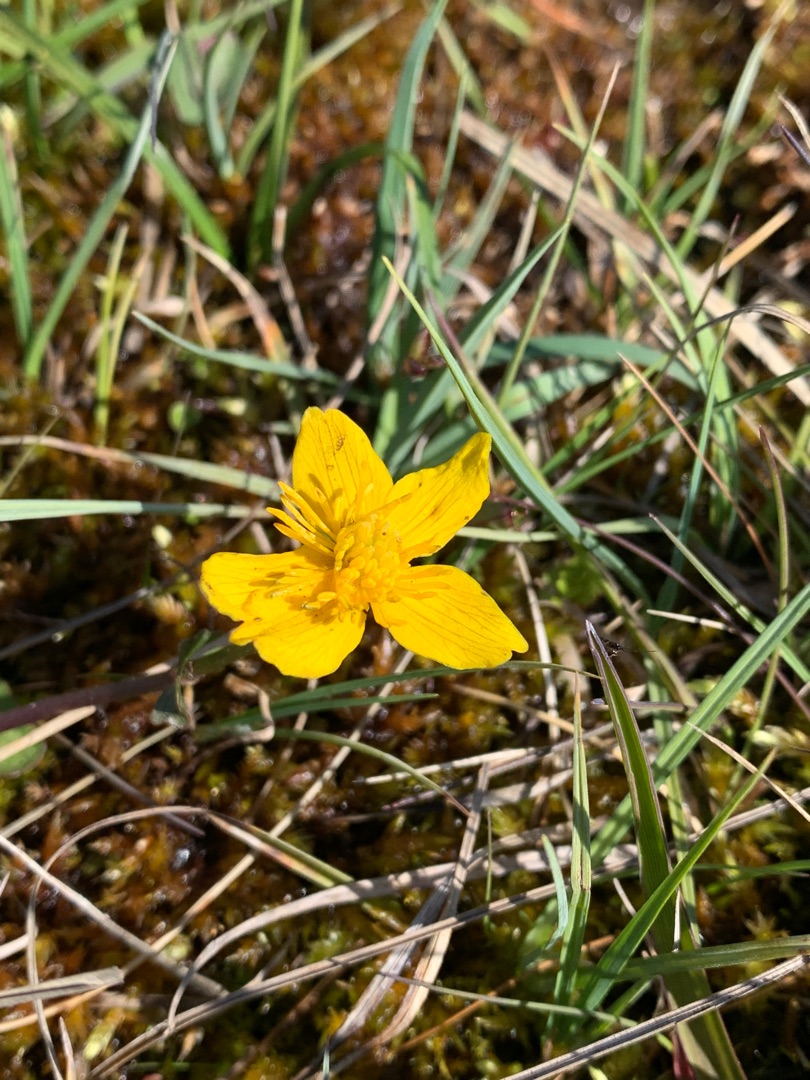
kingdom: Plantae
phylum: Tracheophyta
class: Magnoliopsida
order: Ranunculales
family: Ranunculaceae
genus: Caltha
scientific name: Caltha palustris
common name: Eng-kabbeleje
